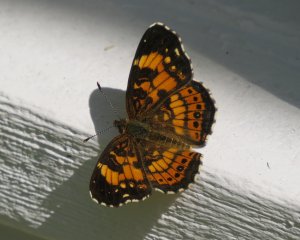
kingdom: Animalia
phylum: Arthropoda
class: Insecta
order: Lepidoptera
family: Nymphalidae
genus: Chlosyne
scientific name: Chlosyne nycteis
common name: Silvery Checkerspot
